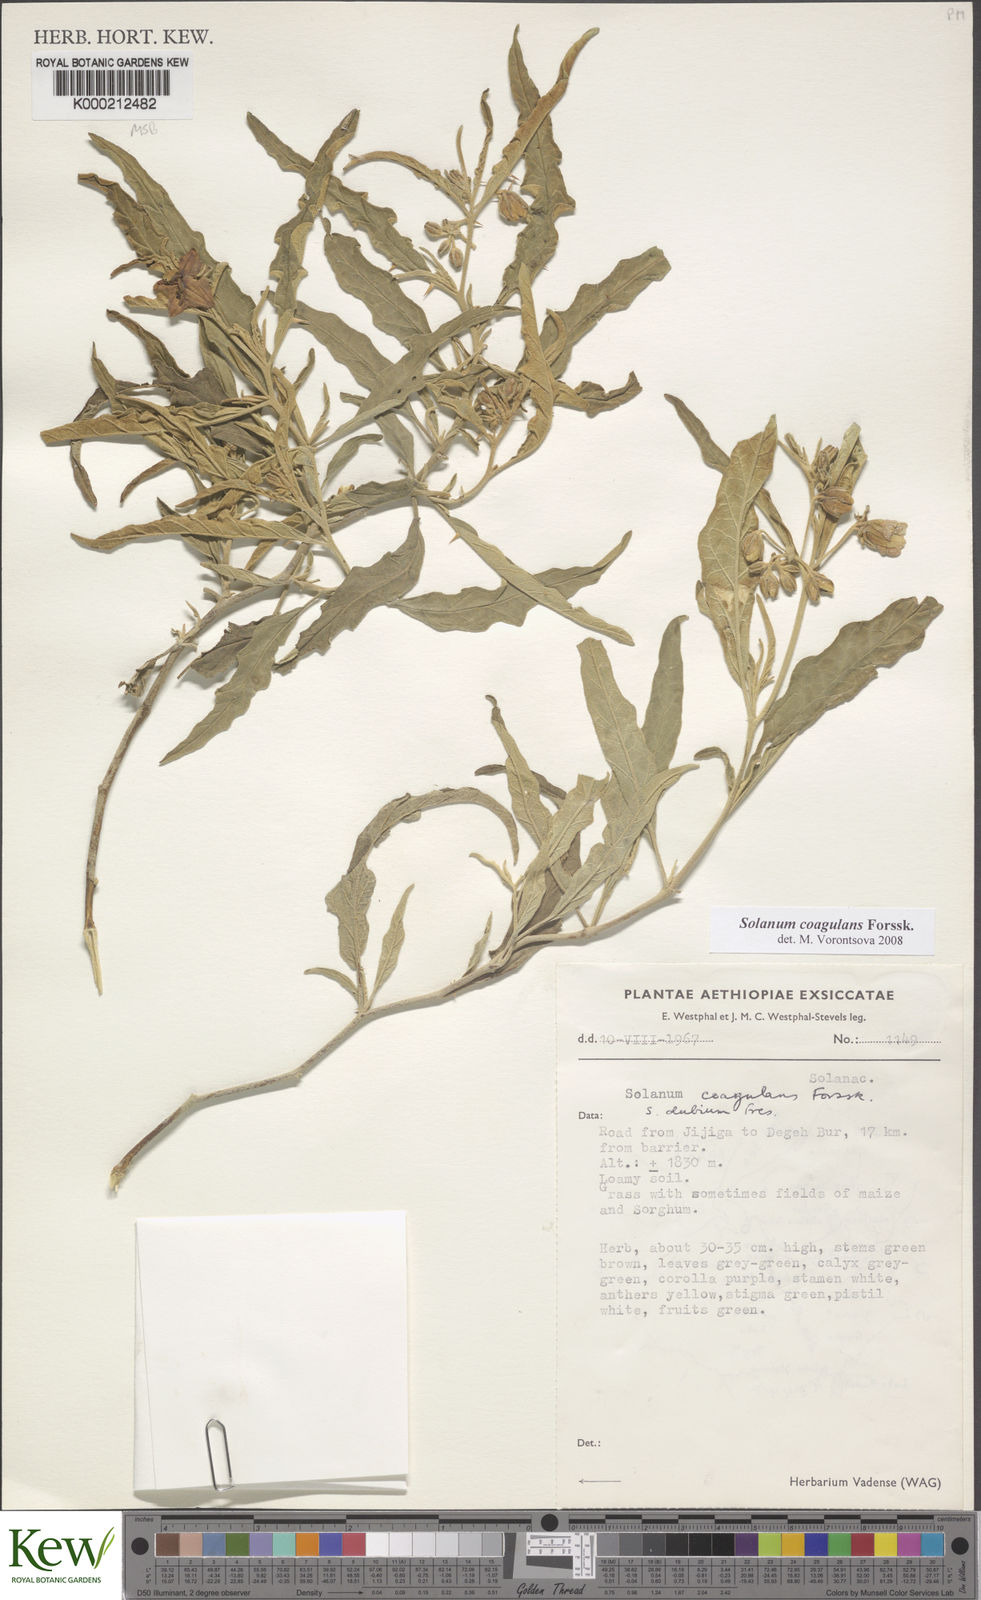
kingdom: Plantae
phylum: Tracheophyta
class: Magnoliopsida
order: Solanales
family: Solanaceae
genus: Solanum
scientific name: Solanum coagulans
